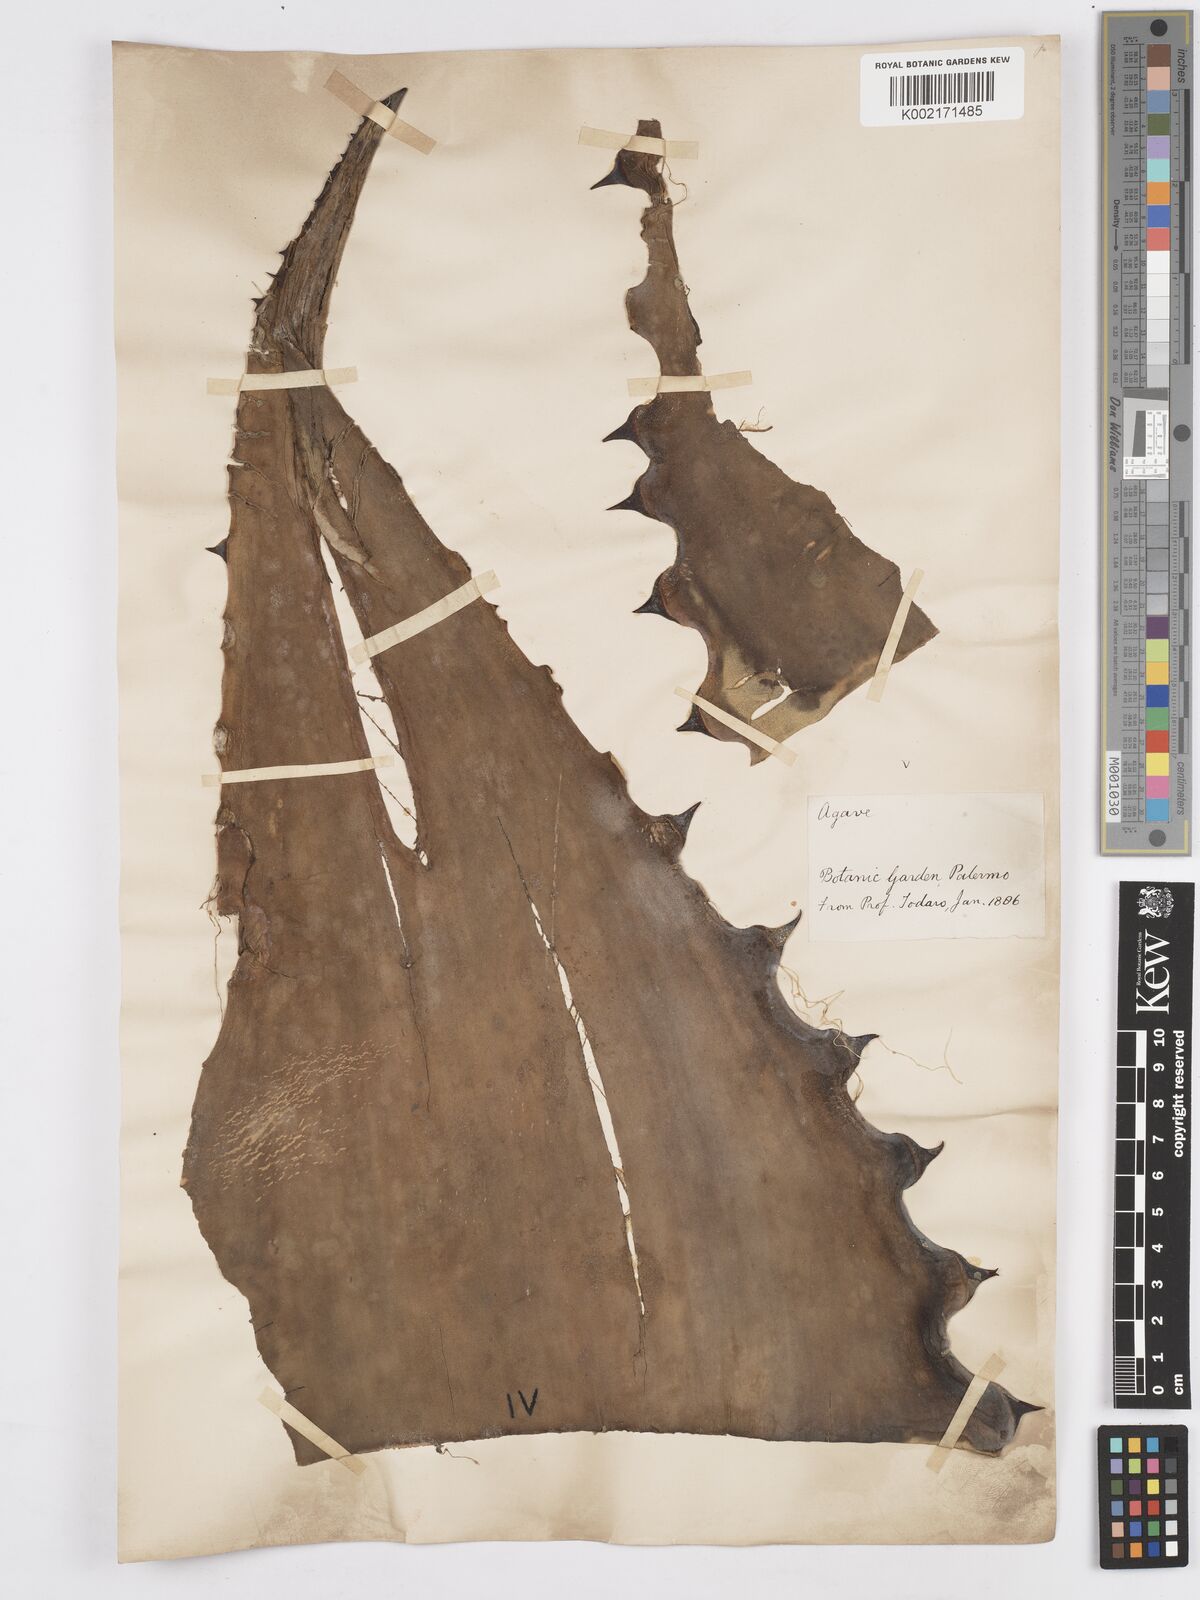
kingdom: Plantae
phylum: Tracheophyta
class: Liliopsida
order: Asparagales
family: Asparagaceae
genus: Agave
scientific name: Agave marmorata
